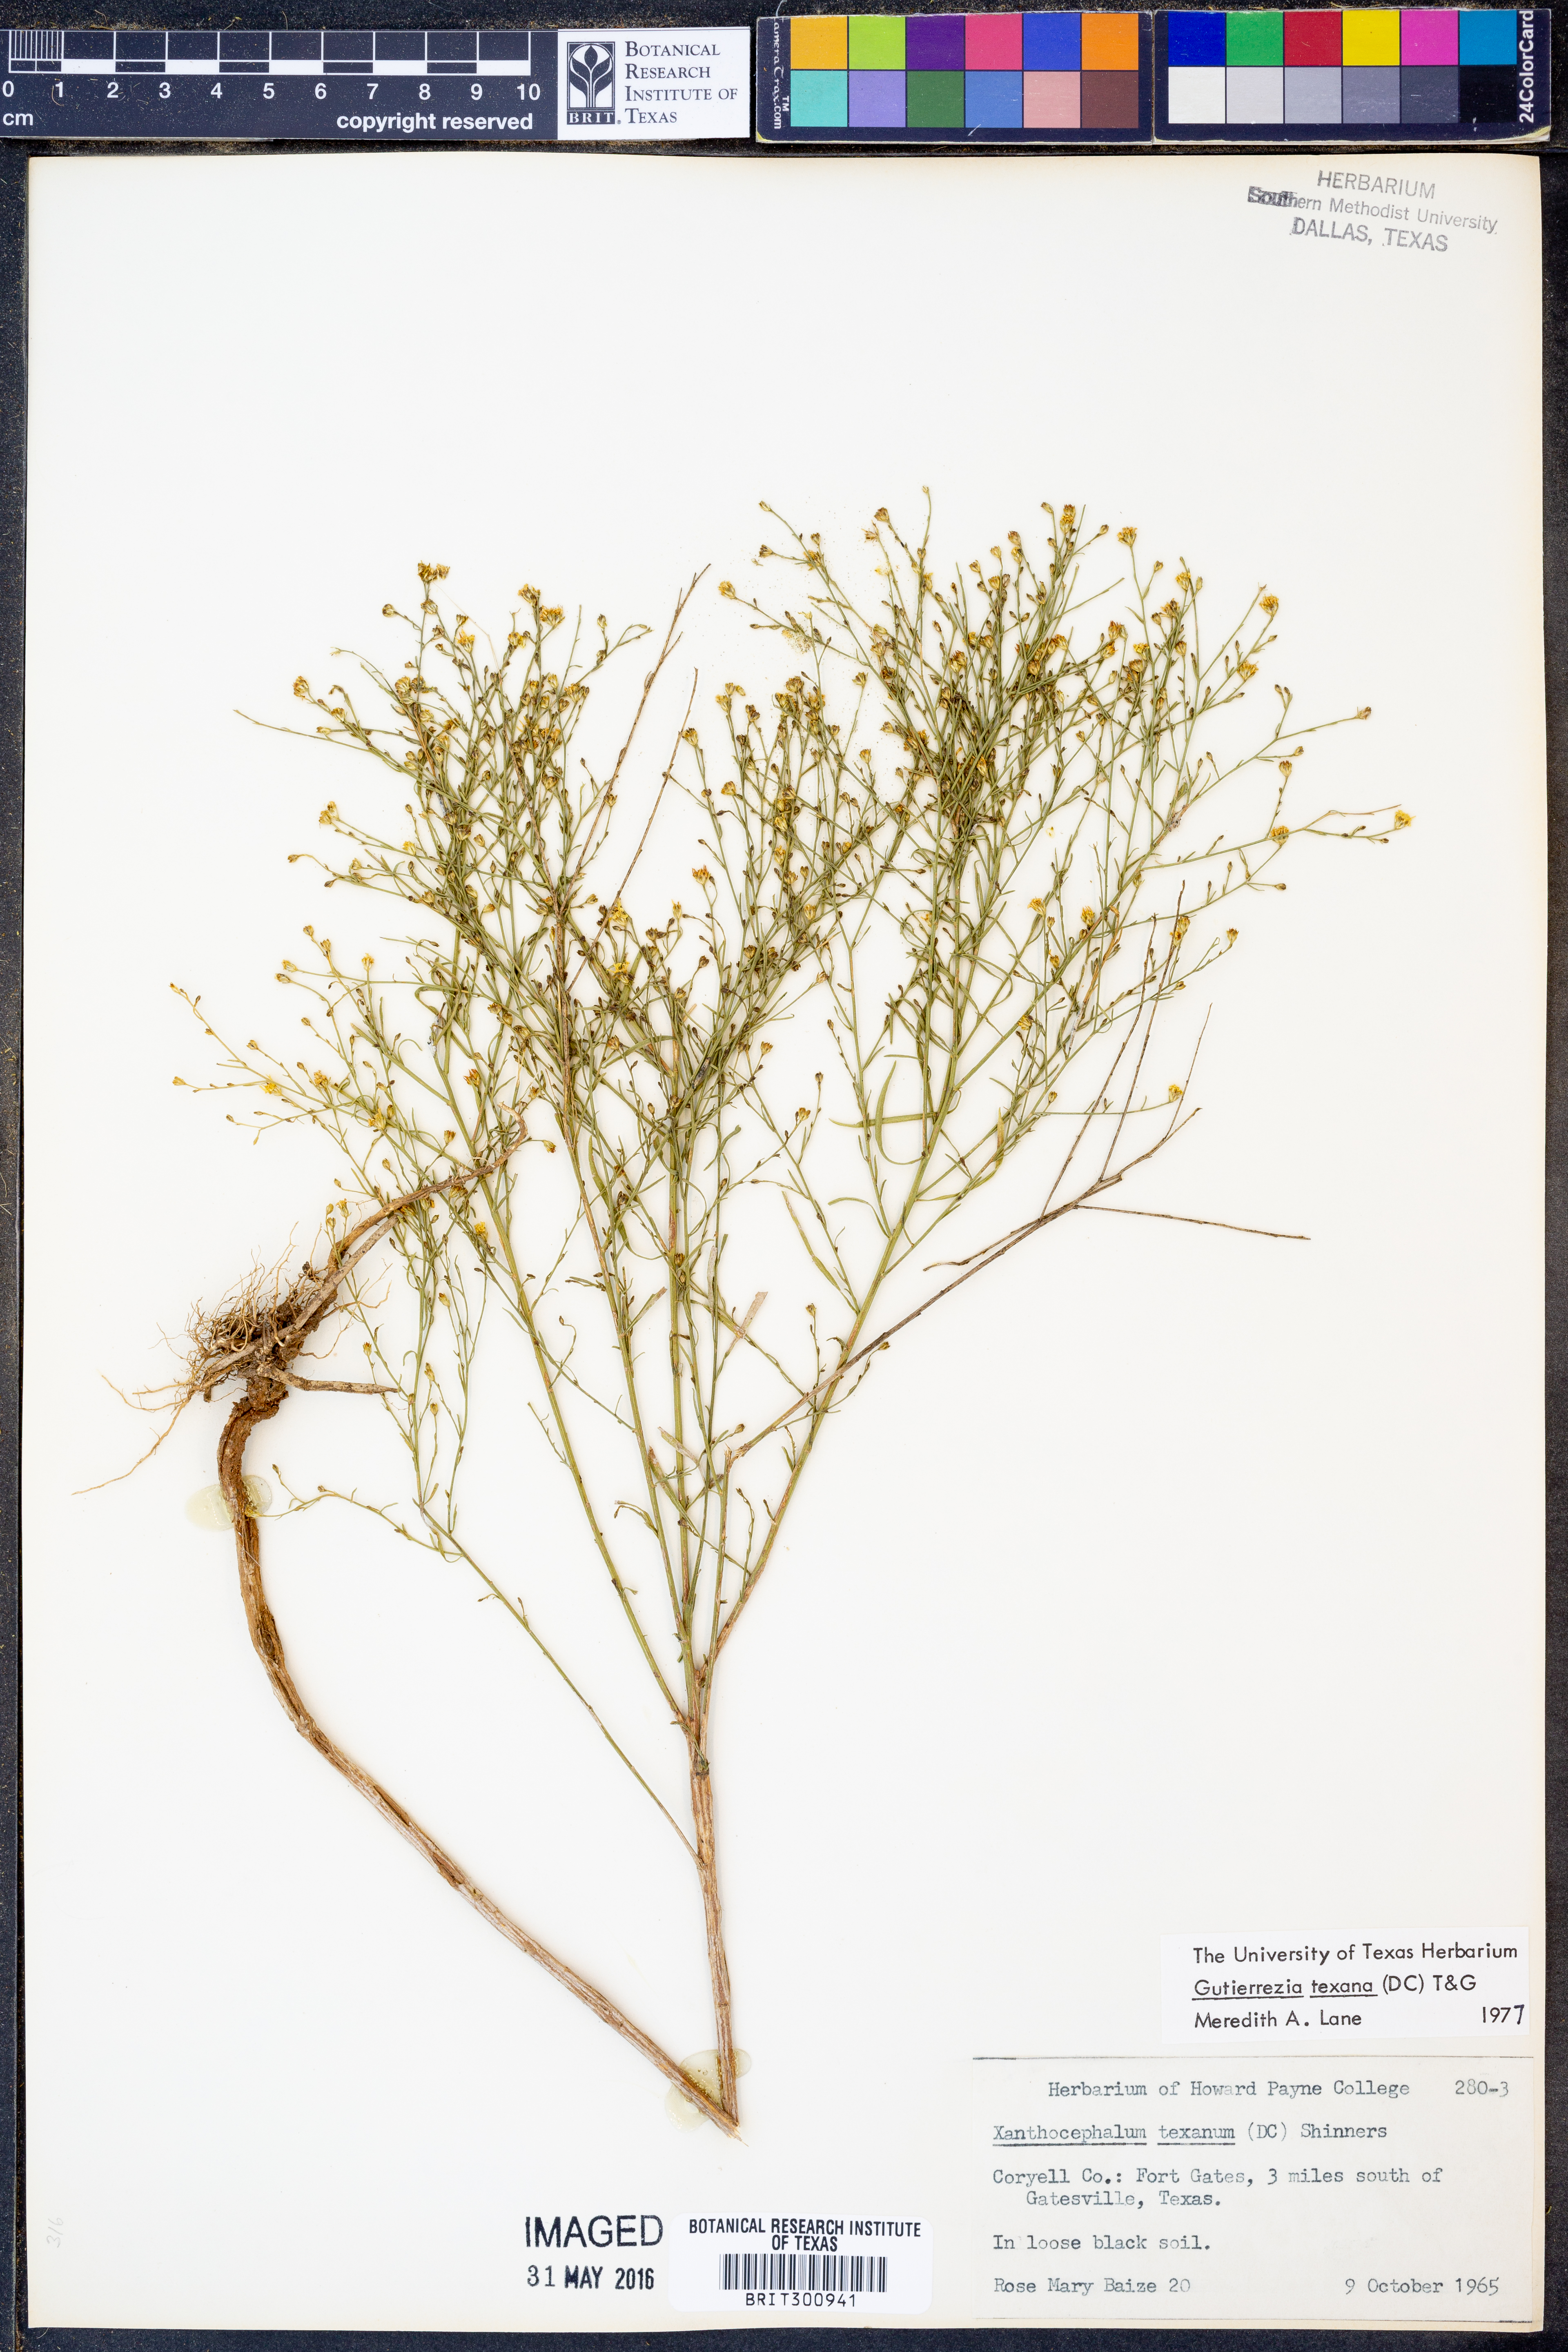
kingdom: Plantae
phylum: Tracheophyta
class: Magnoliopsida
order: Asterales
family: Asteraceae
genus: Gutierrezia
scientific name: Gutierrezia texana
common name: Texas snakeweed
